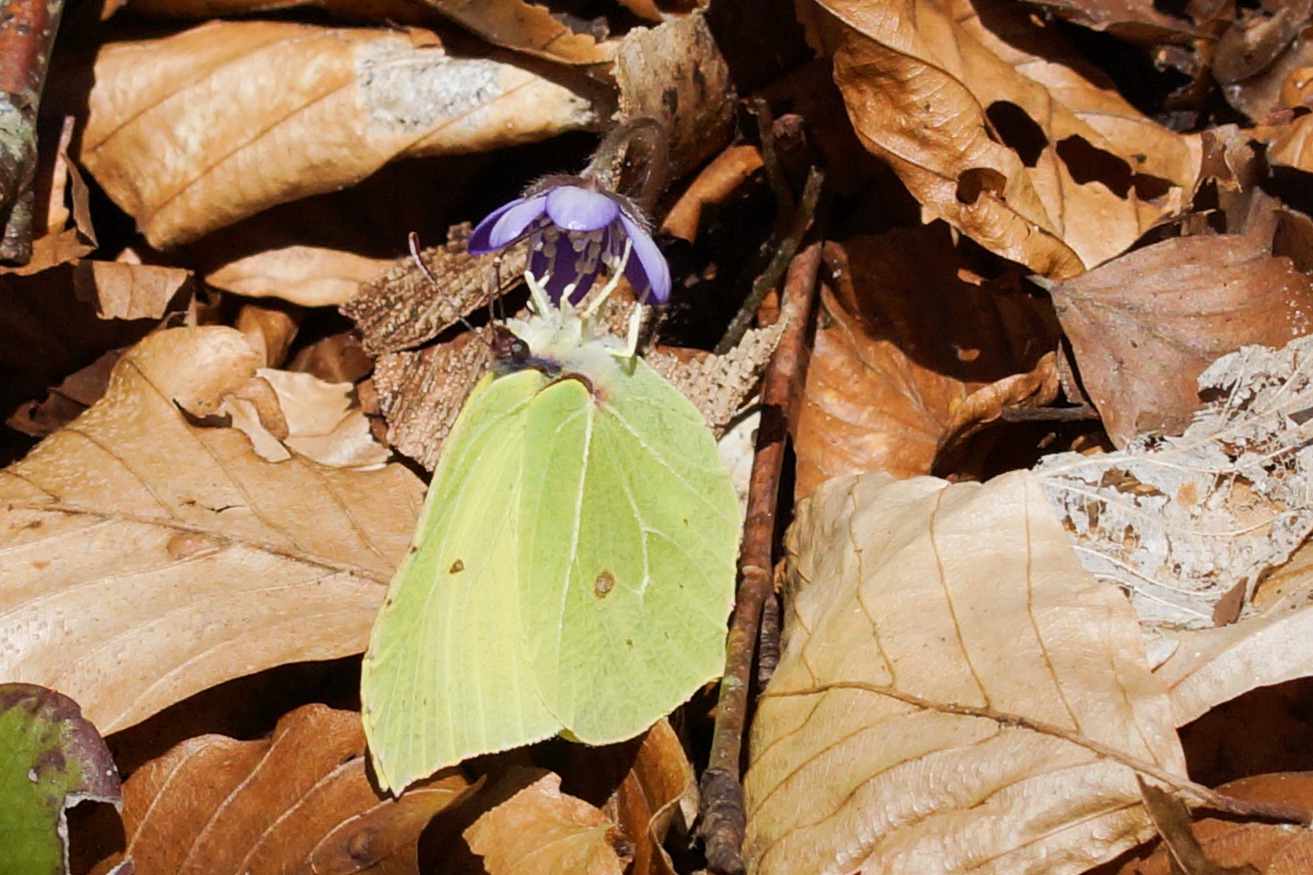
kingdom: Animalia
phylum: Arthropoda
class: Insecta
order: Lepidoptera
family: Pieridae
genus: Gonepteryx
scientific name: Gonepteryx rhamni
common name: Citronsommerfugl
